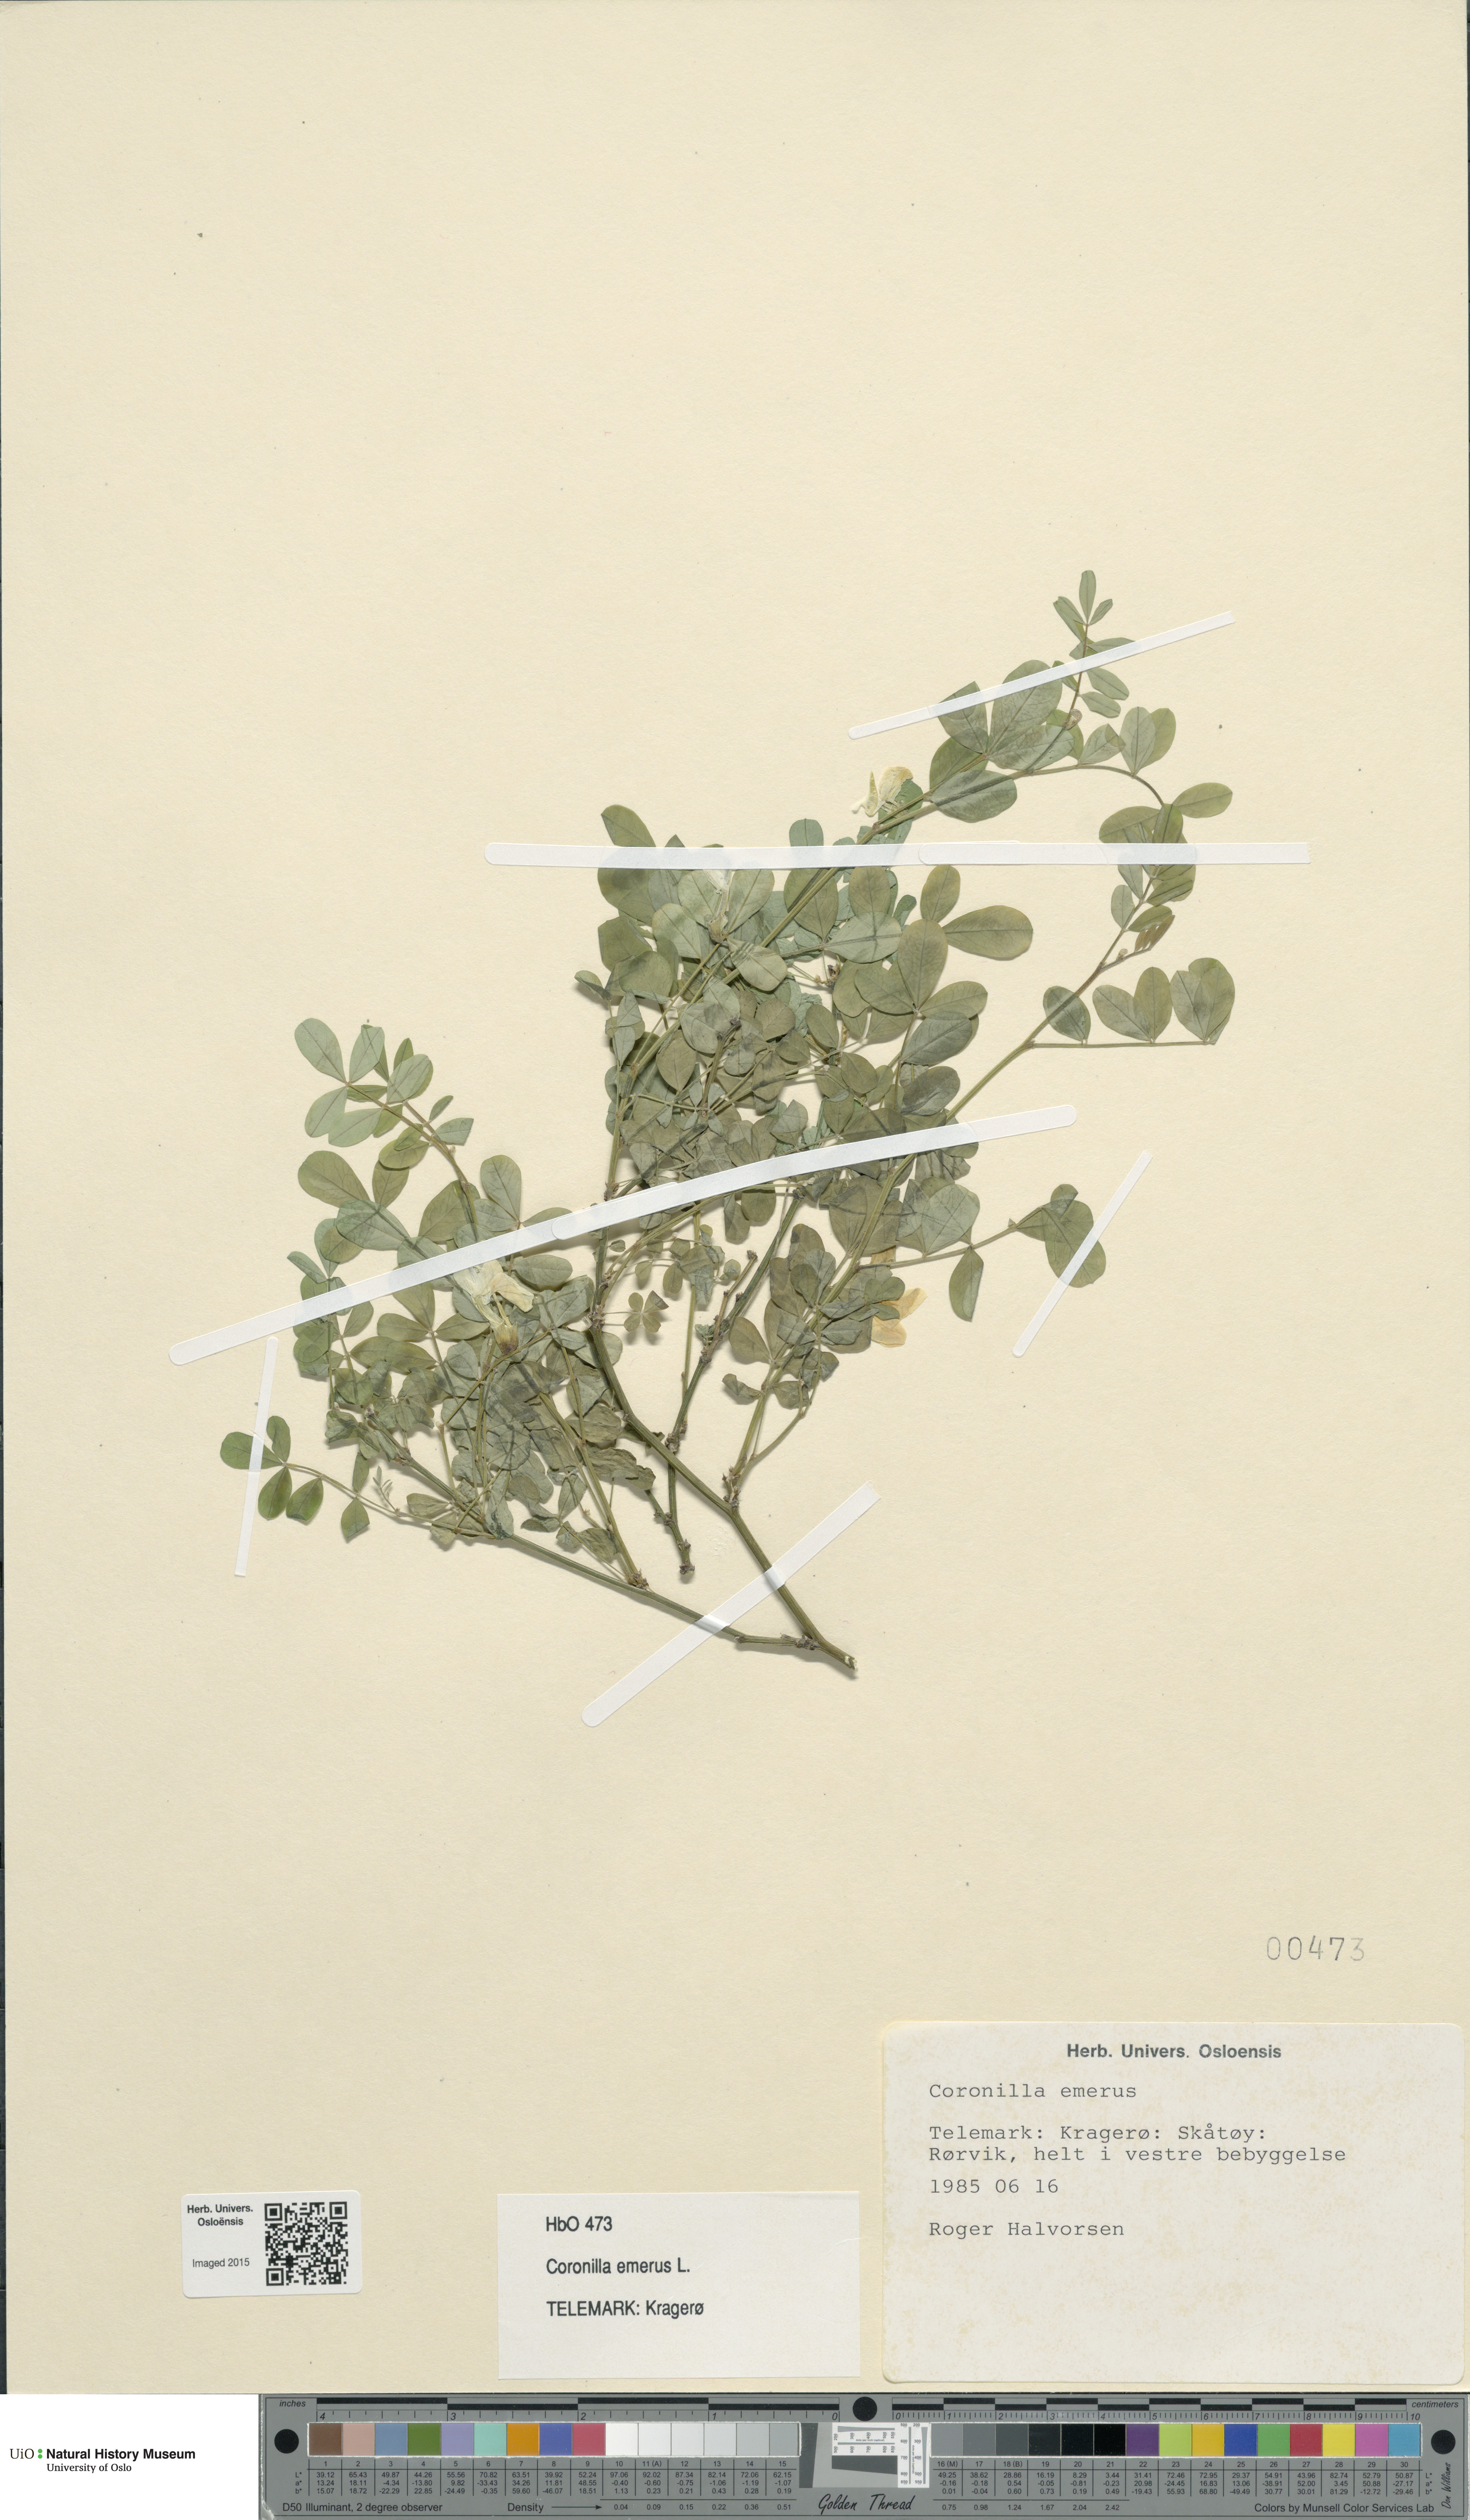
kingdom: Plantae
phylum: Tracheophyta
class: Magnoliopsida
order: Fabales
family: Fabaceae
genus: Hippocrepis
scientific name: Hippocrepis emerus
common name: Scorpion senna
